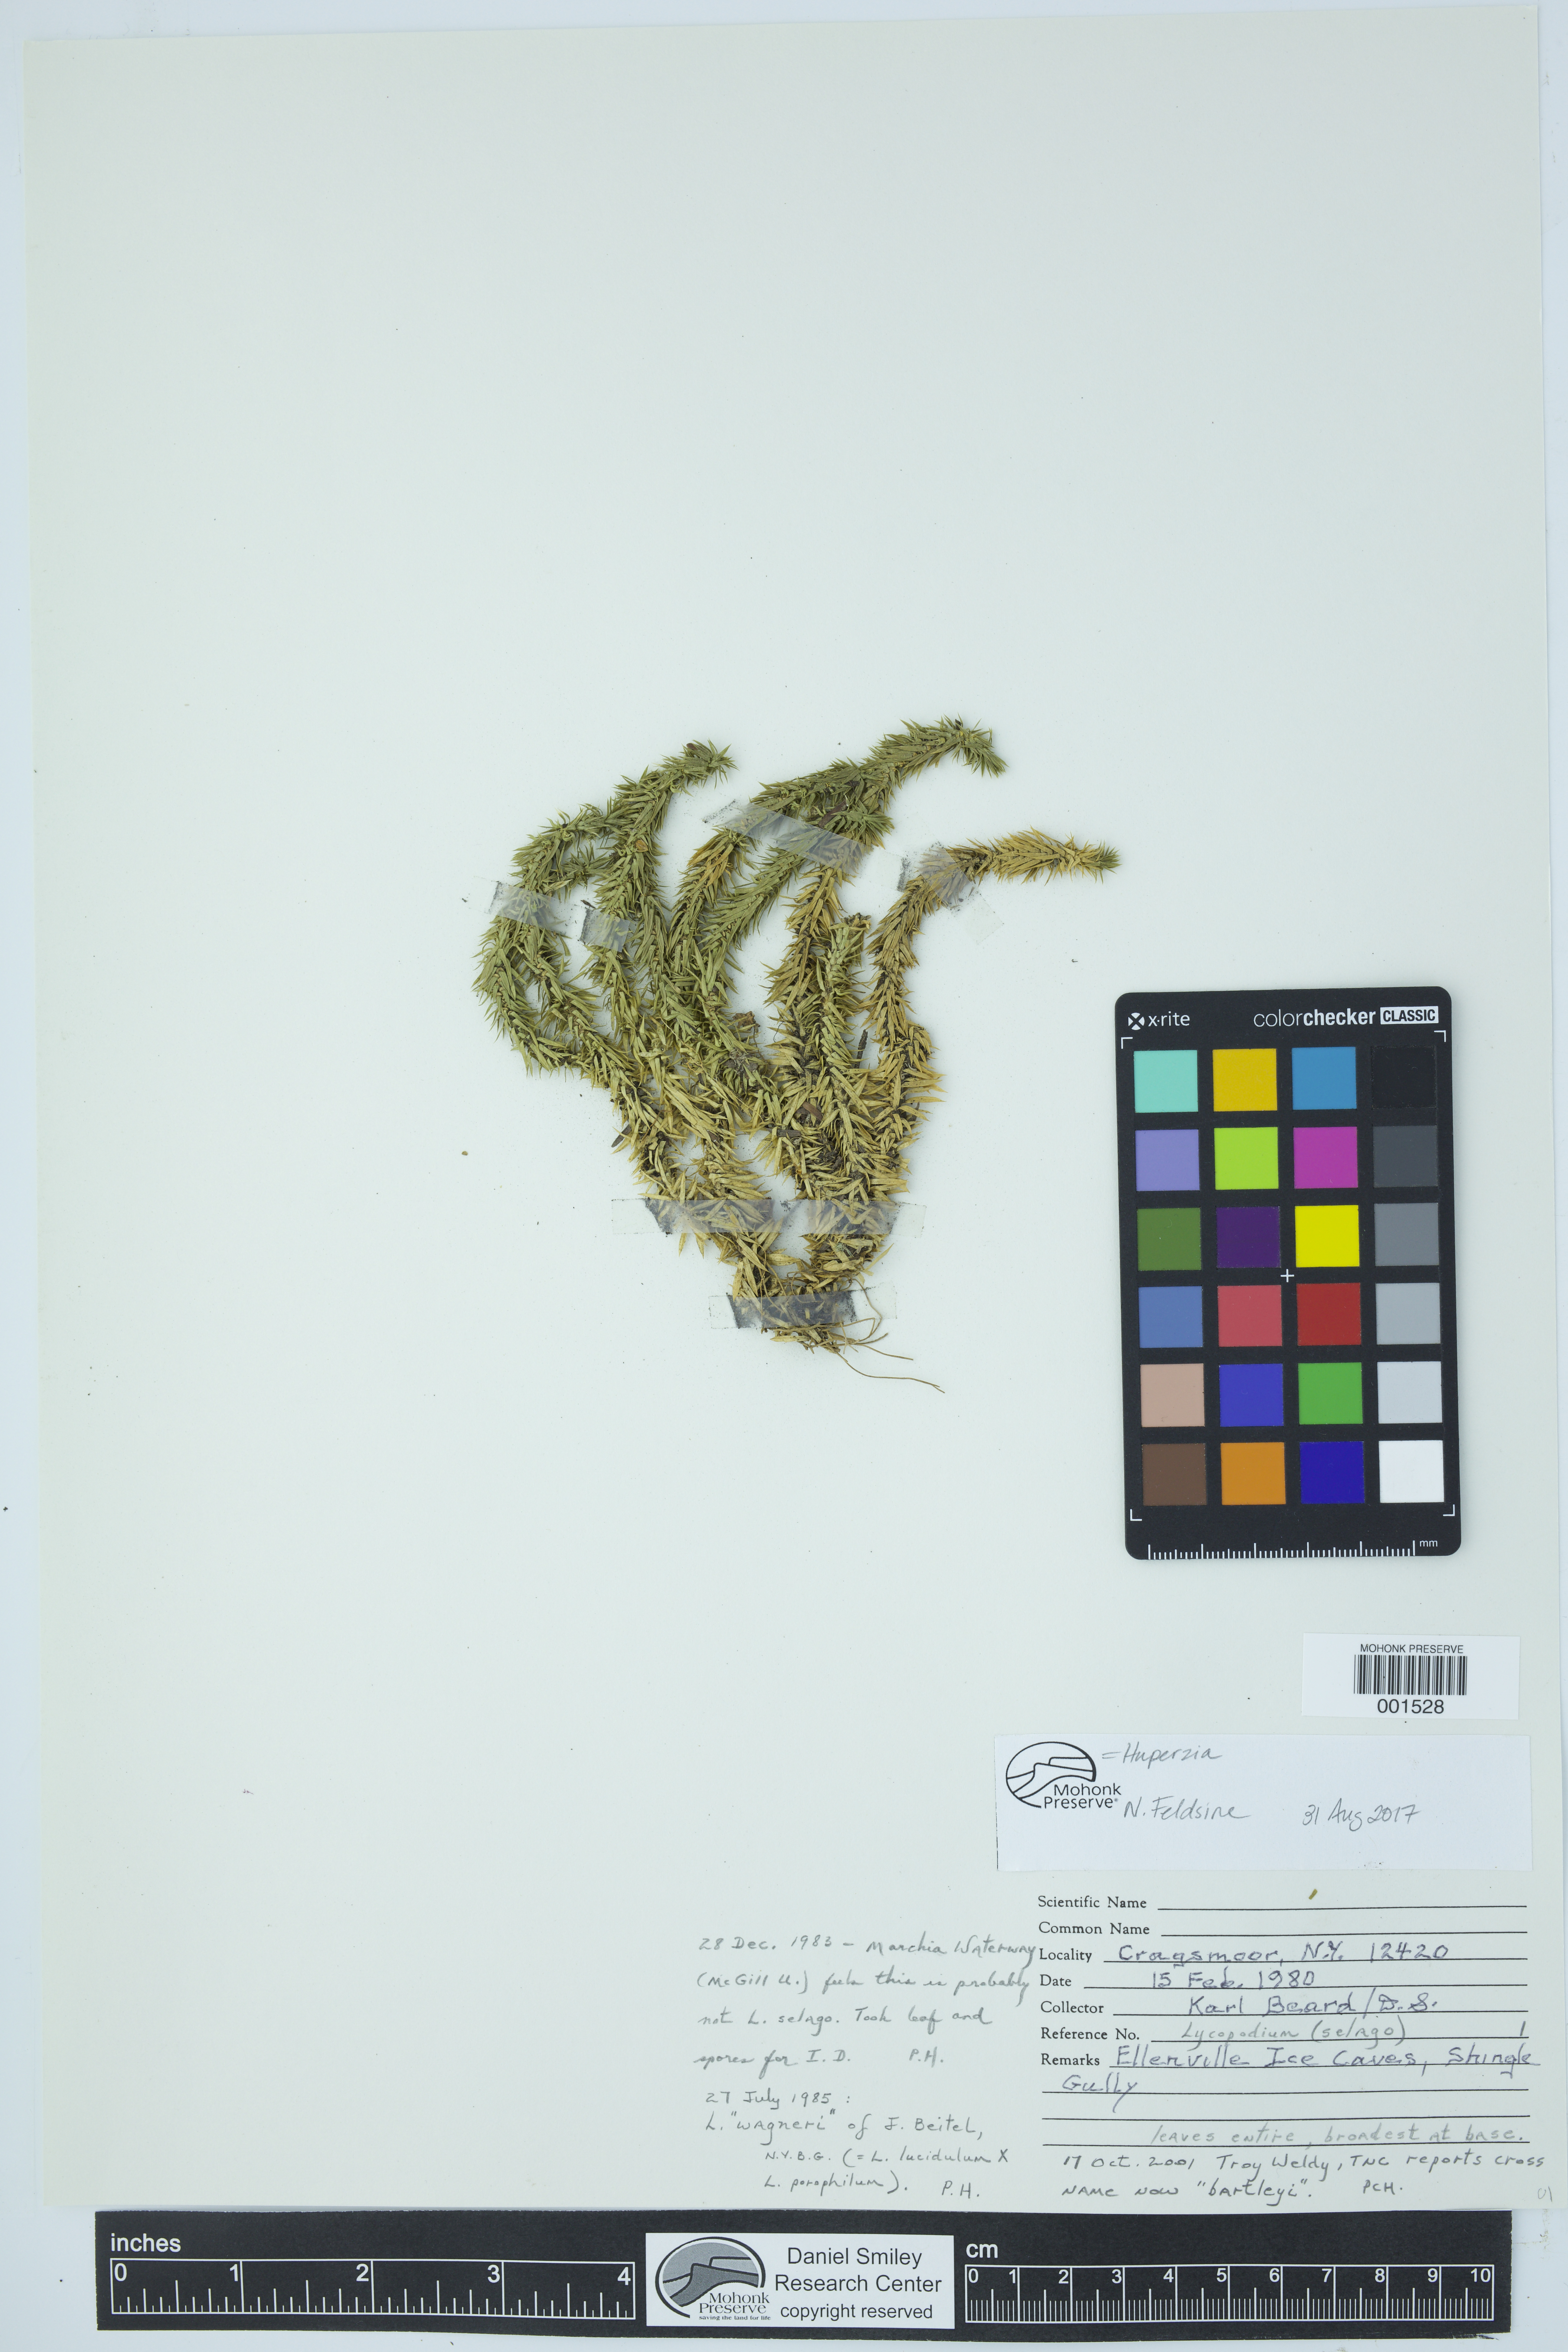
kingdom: Plantae
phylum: Tracheophyta
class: Lycopodiopsida
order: Lycopodiales
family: Lycopodiaceae
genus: Huperzia
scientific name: Huperzia
